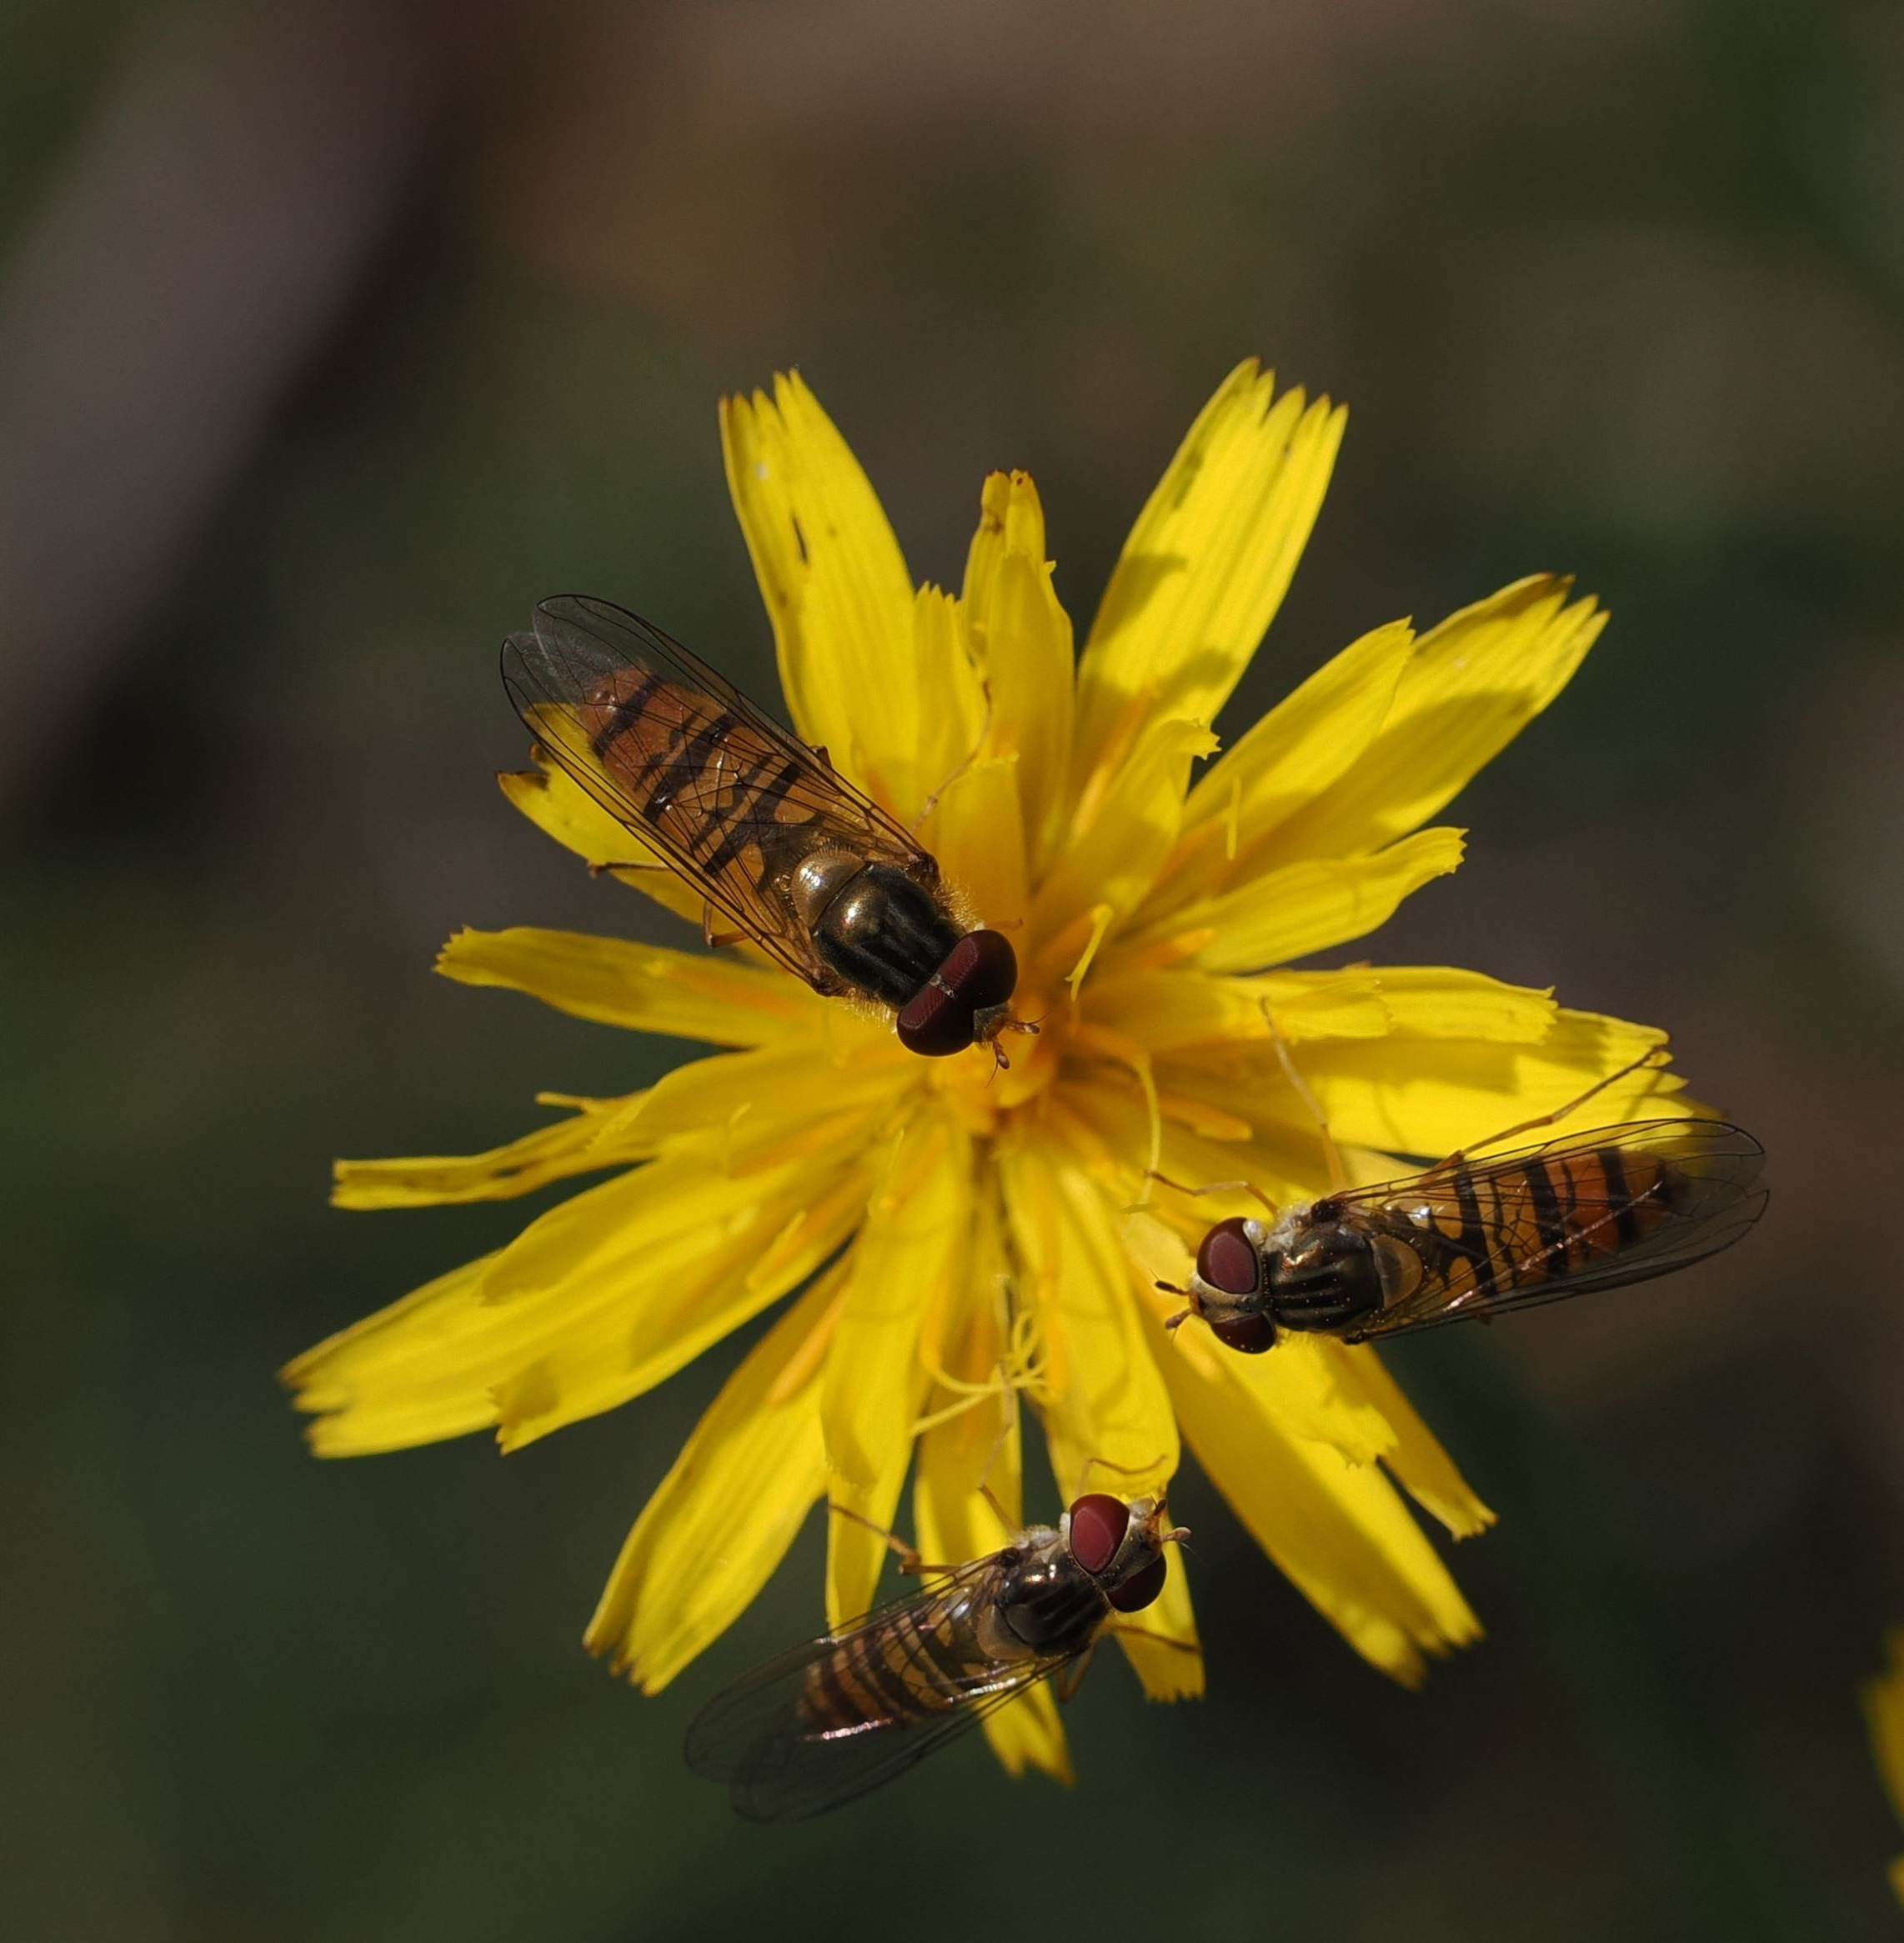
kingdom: Animalia
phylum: Arthropoda
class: Insecta
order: Diptera
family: Syrphidae
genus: Episyrphus
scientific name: Episyrphus balteatus
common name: Dobbeltbåndet svirreflue
